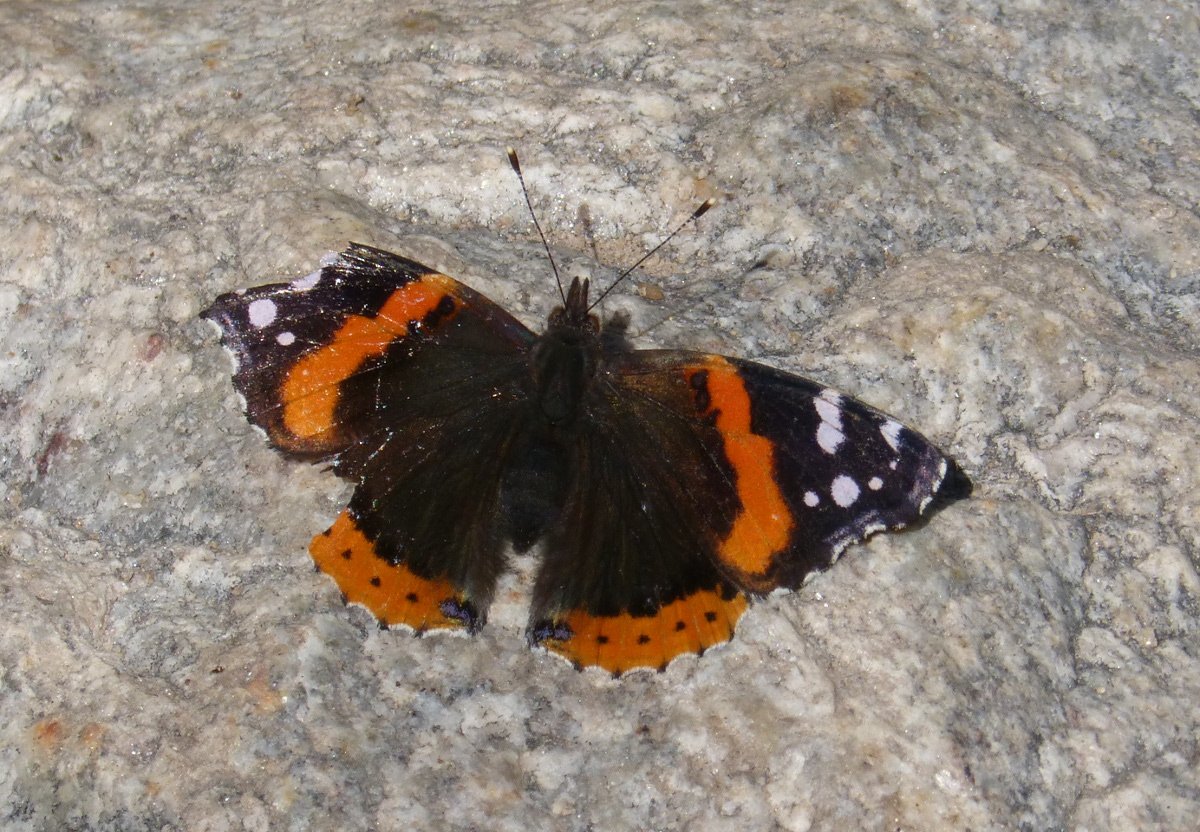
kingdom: Animalia
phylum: Arthropoda
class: Insecta
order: Lepidoptera
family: Nymphalidae
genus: Vanessa
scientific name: Vanessa atalanta
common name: Red Admiral
